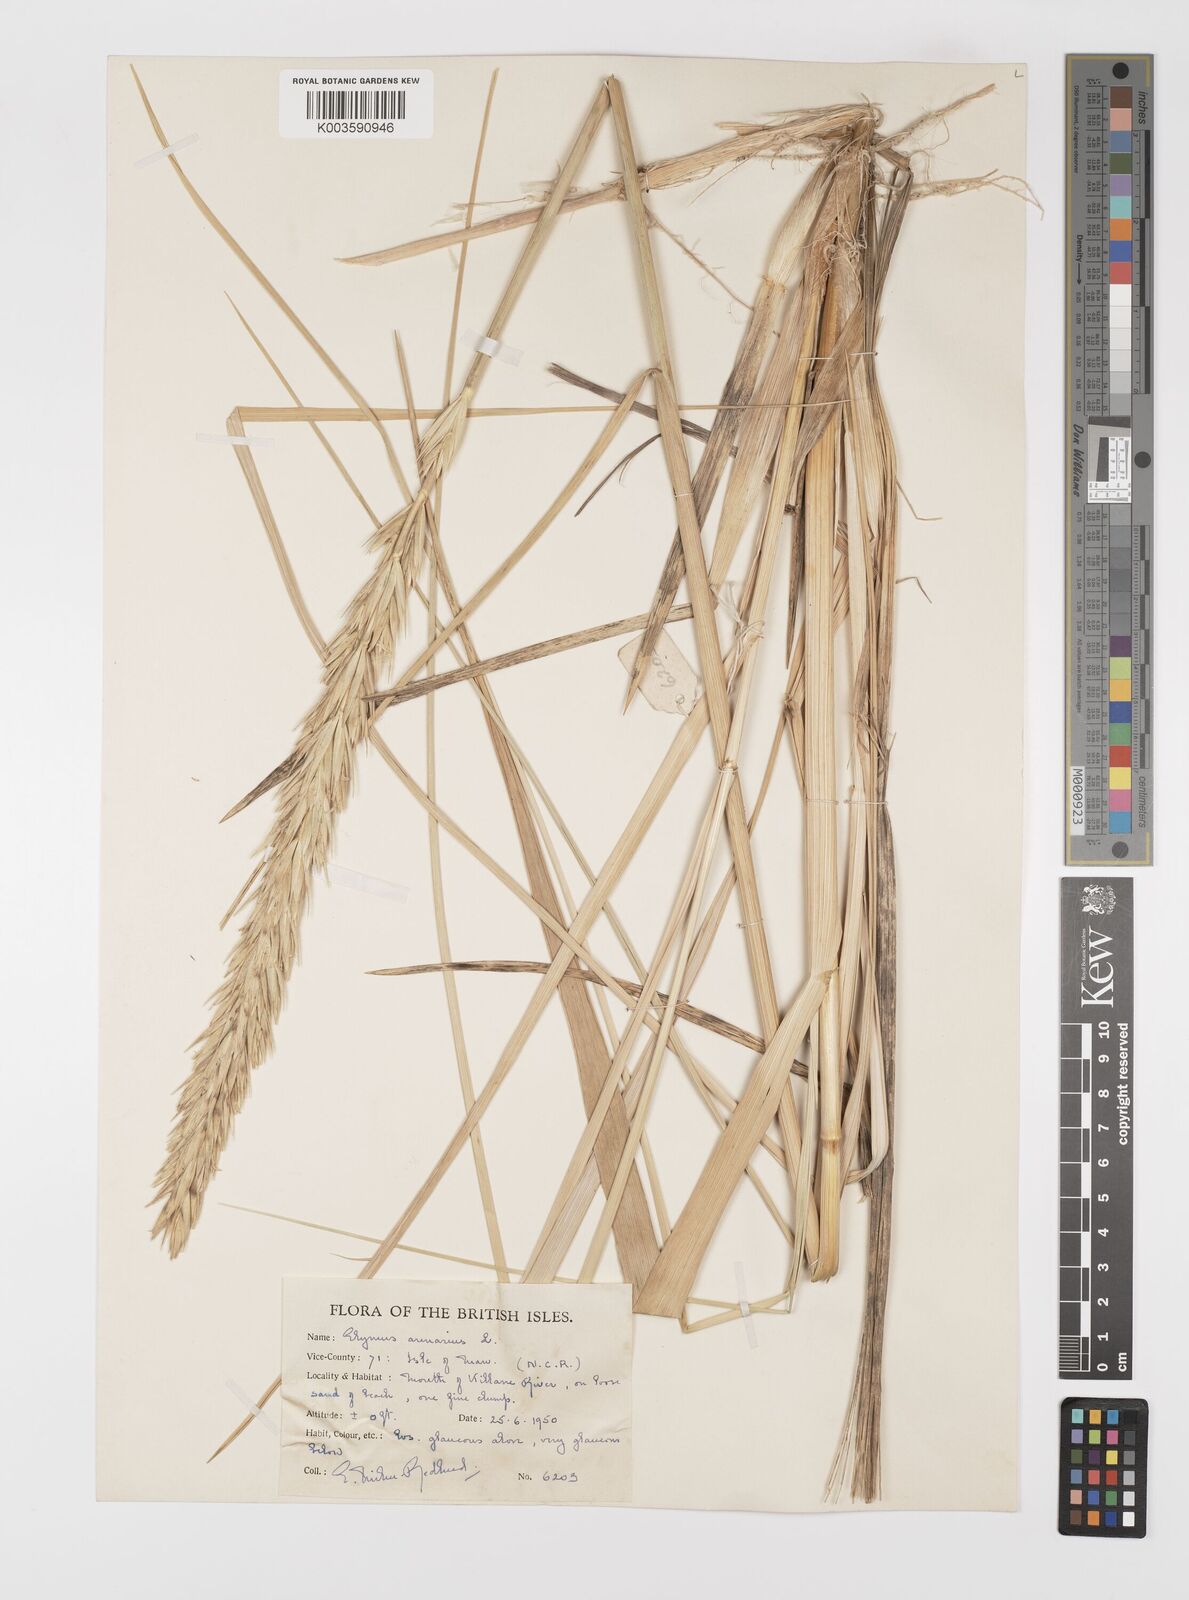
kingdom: Plantae
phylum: Tracheophyta
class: Liliopsida
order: Poales
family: Poaceae
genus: Leymus
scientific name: Leymus arenarius
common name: Lyme-grass
